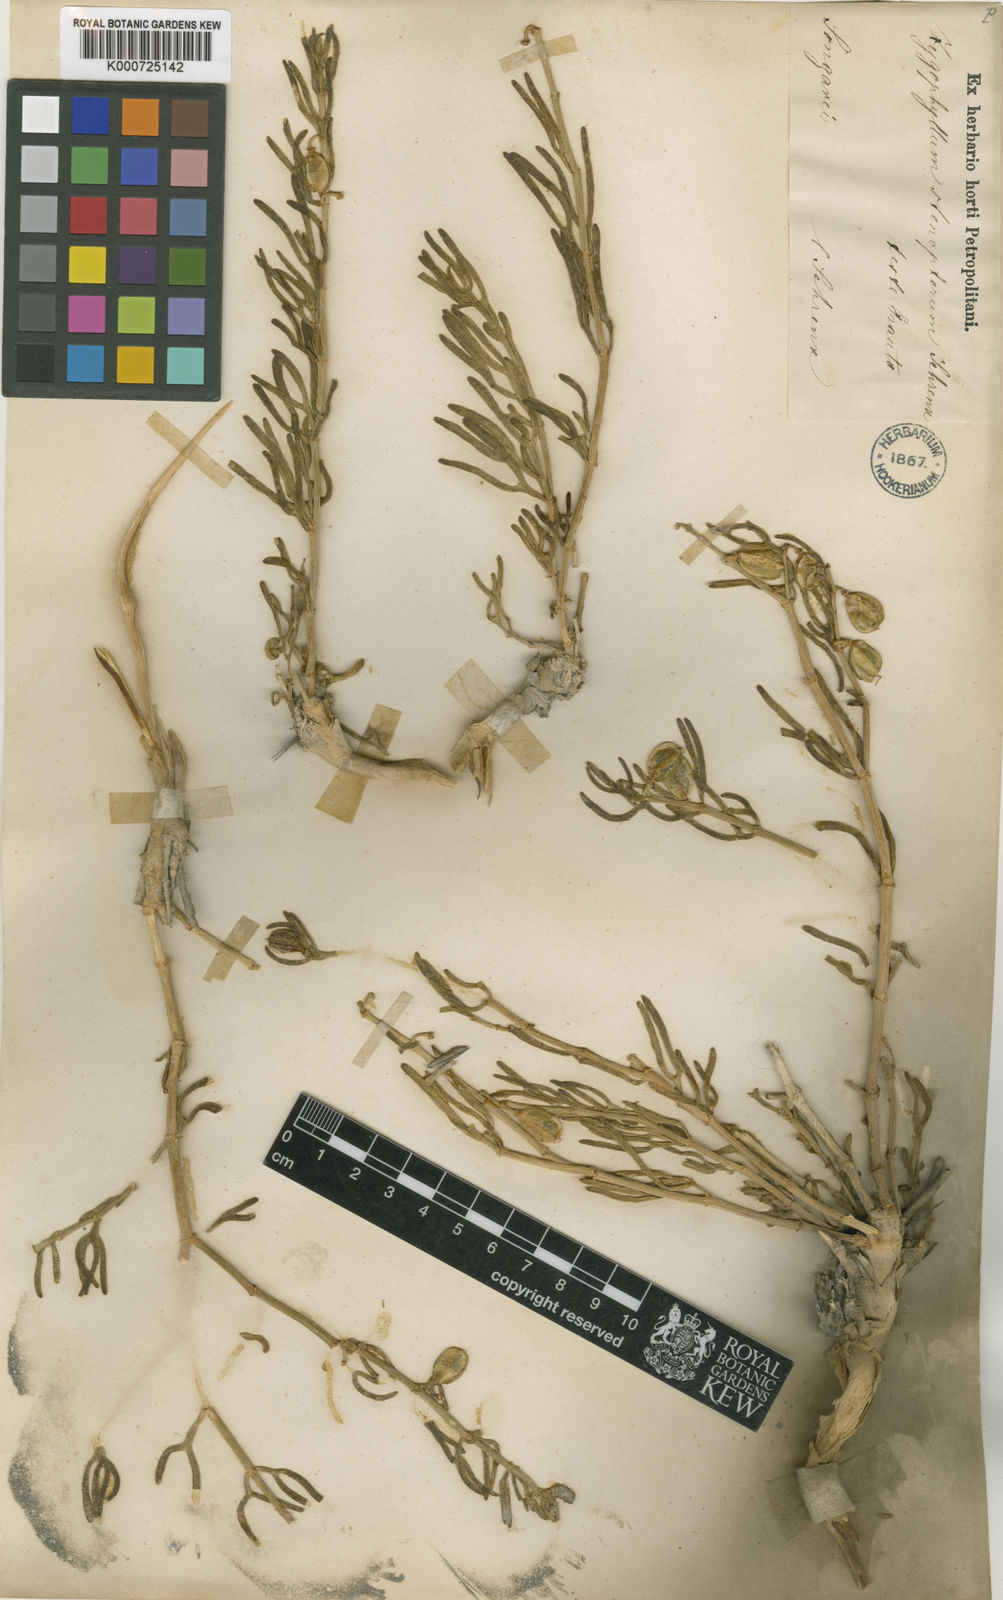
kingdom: Plantae
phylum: Tracheophyta
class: Magnoliopsida
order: Zygophyllales
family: Zygophyllaceae
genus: Zygophyllum
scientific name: Zygophyllum steropterum
